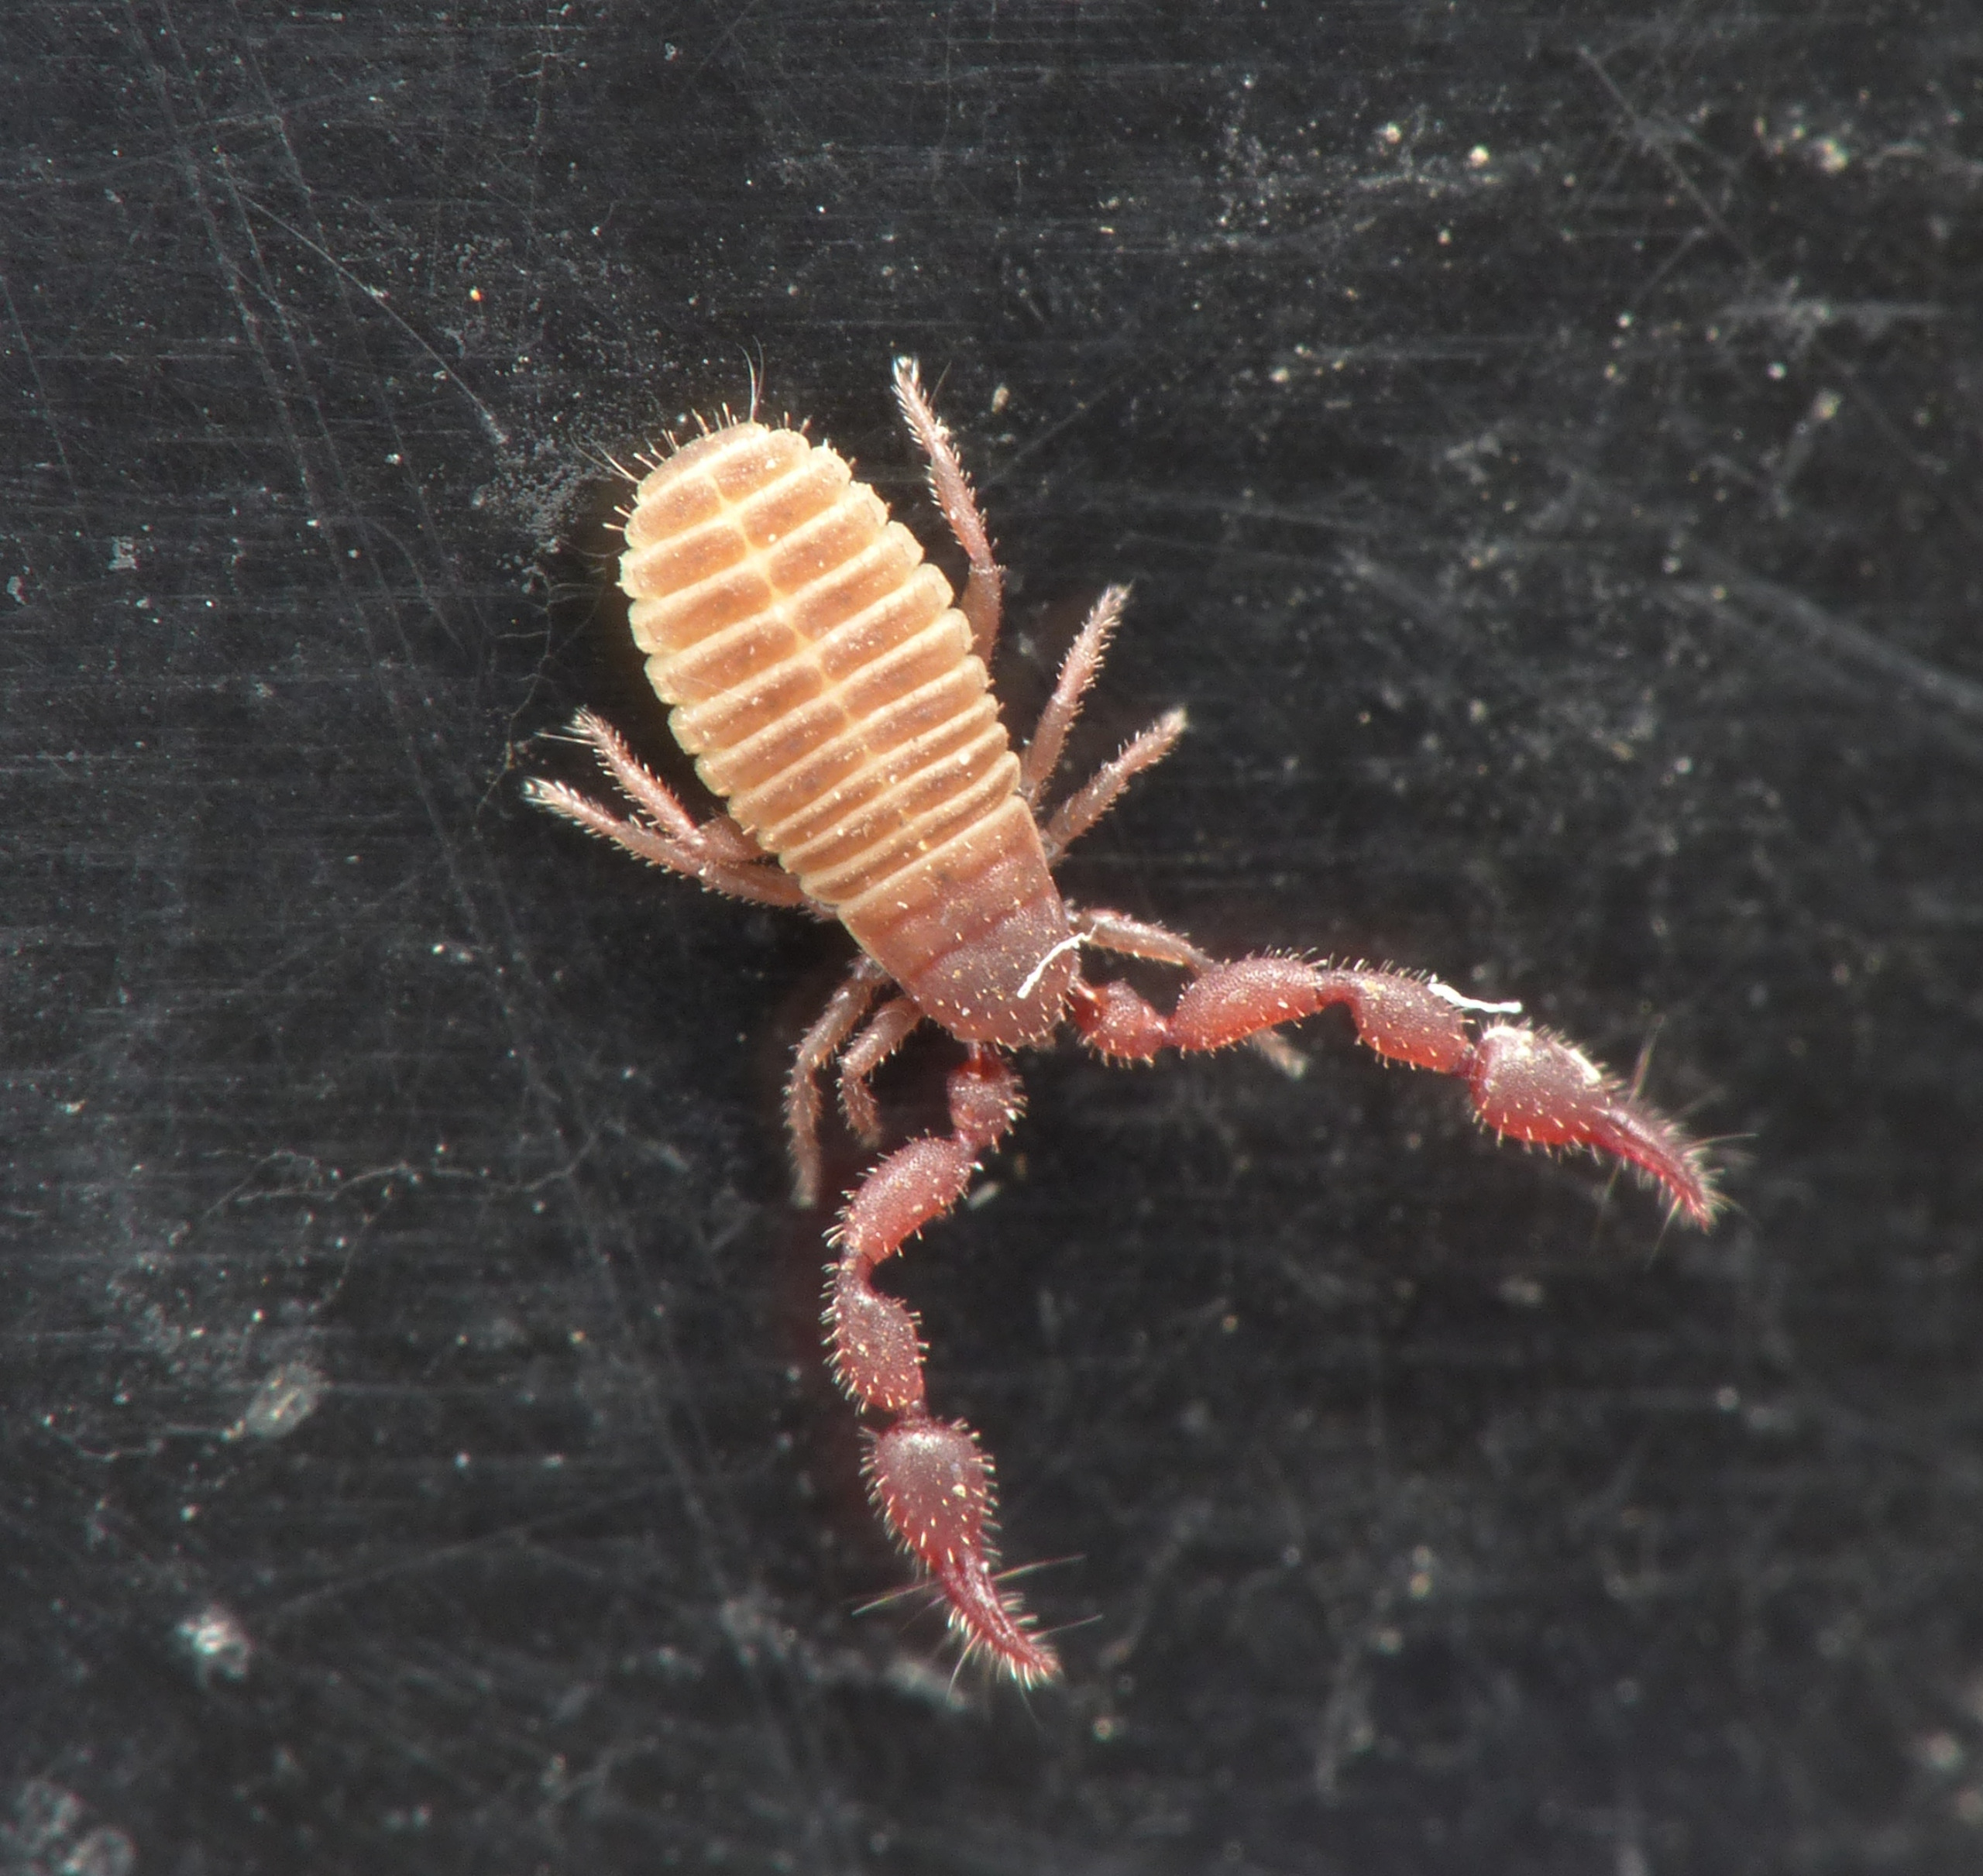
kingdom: Animalia
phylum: Arthropoda
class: Arachnida
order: Pseudoscorpiones
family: Chernetidae
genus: Pselaphochernes
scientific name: Pselaphochernes scorpioides
